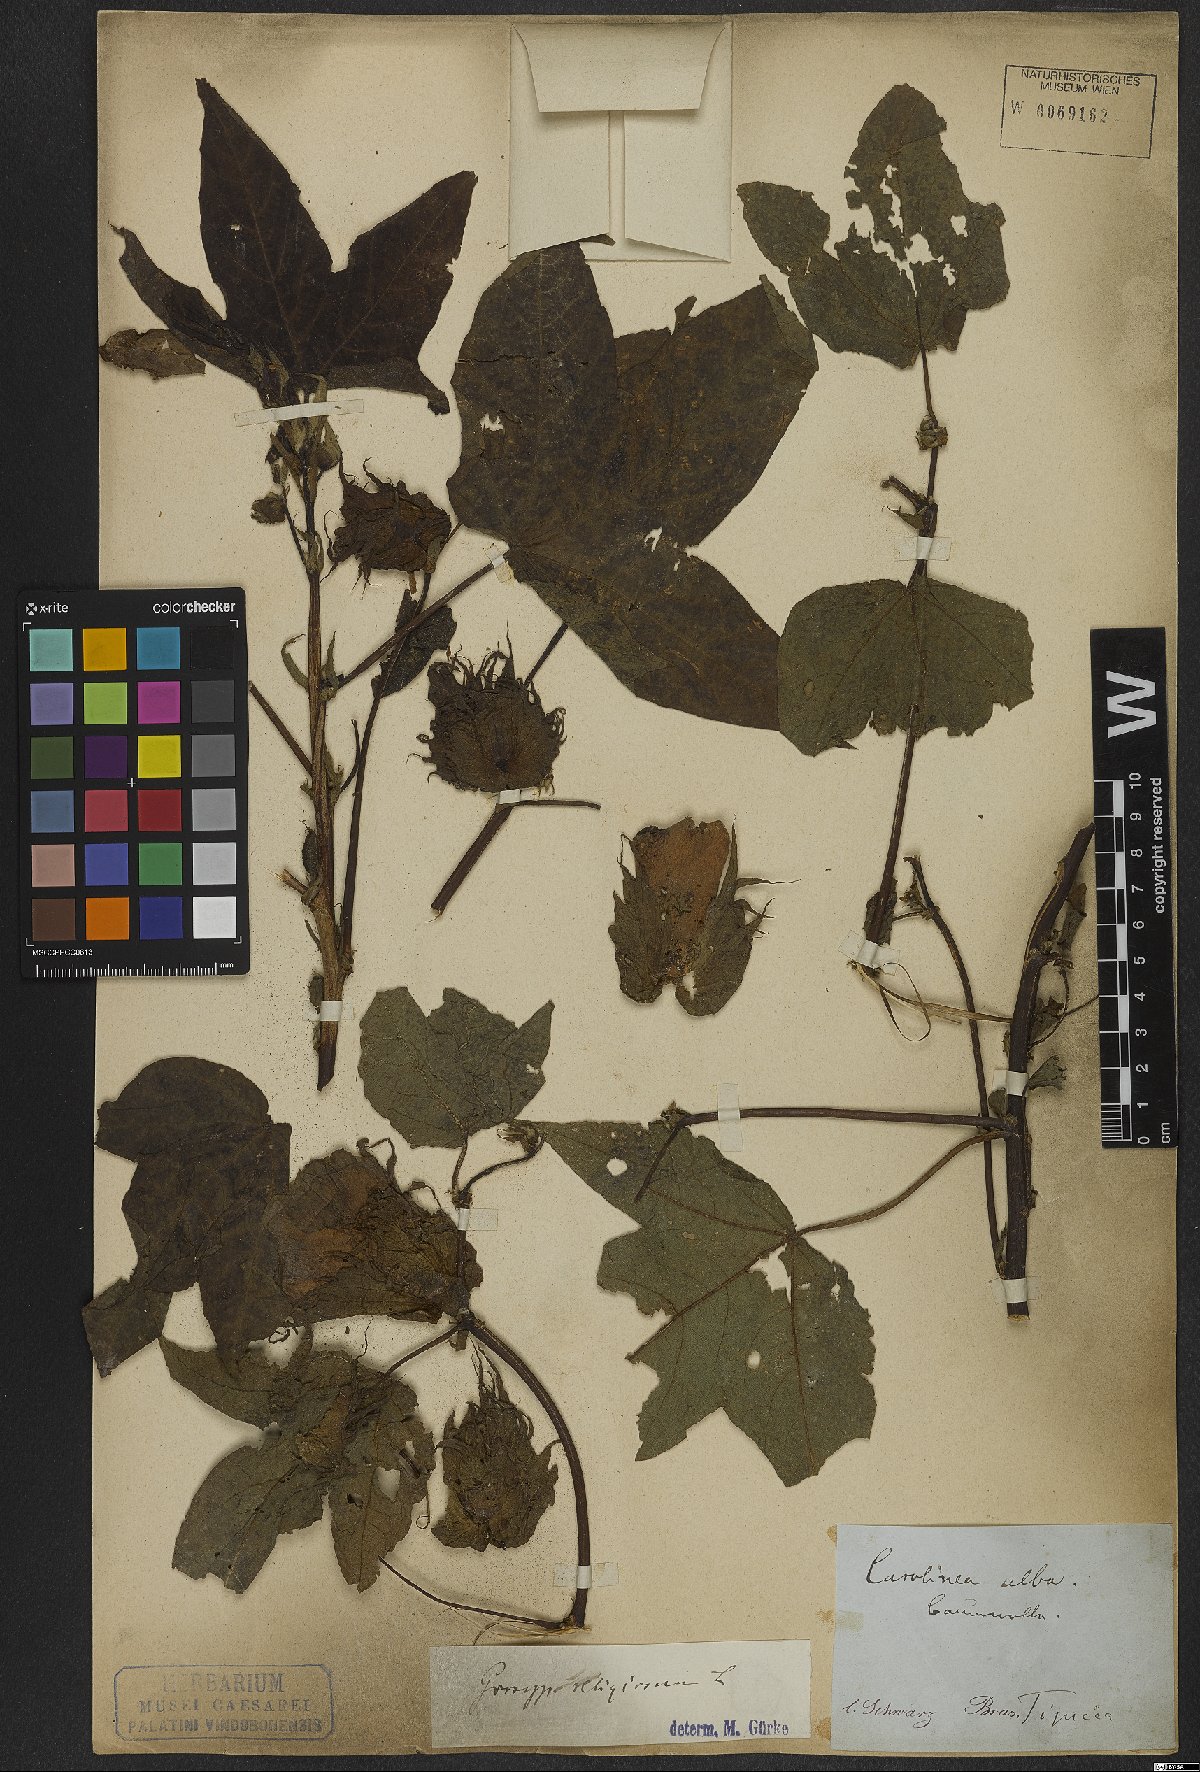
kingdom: Plantae
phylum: Tracheophyta
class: Magnoliopsida
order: Malvales
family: Malvaceae
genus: Gossypium
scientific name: Gossypium hirsutum
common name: Cotton
